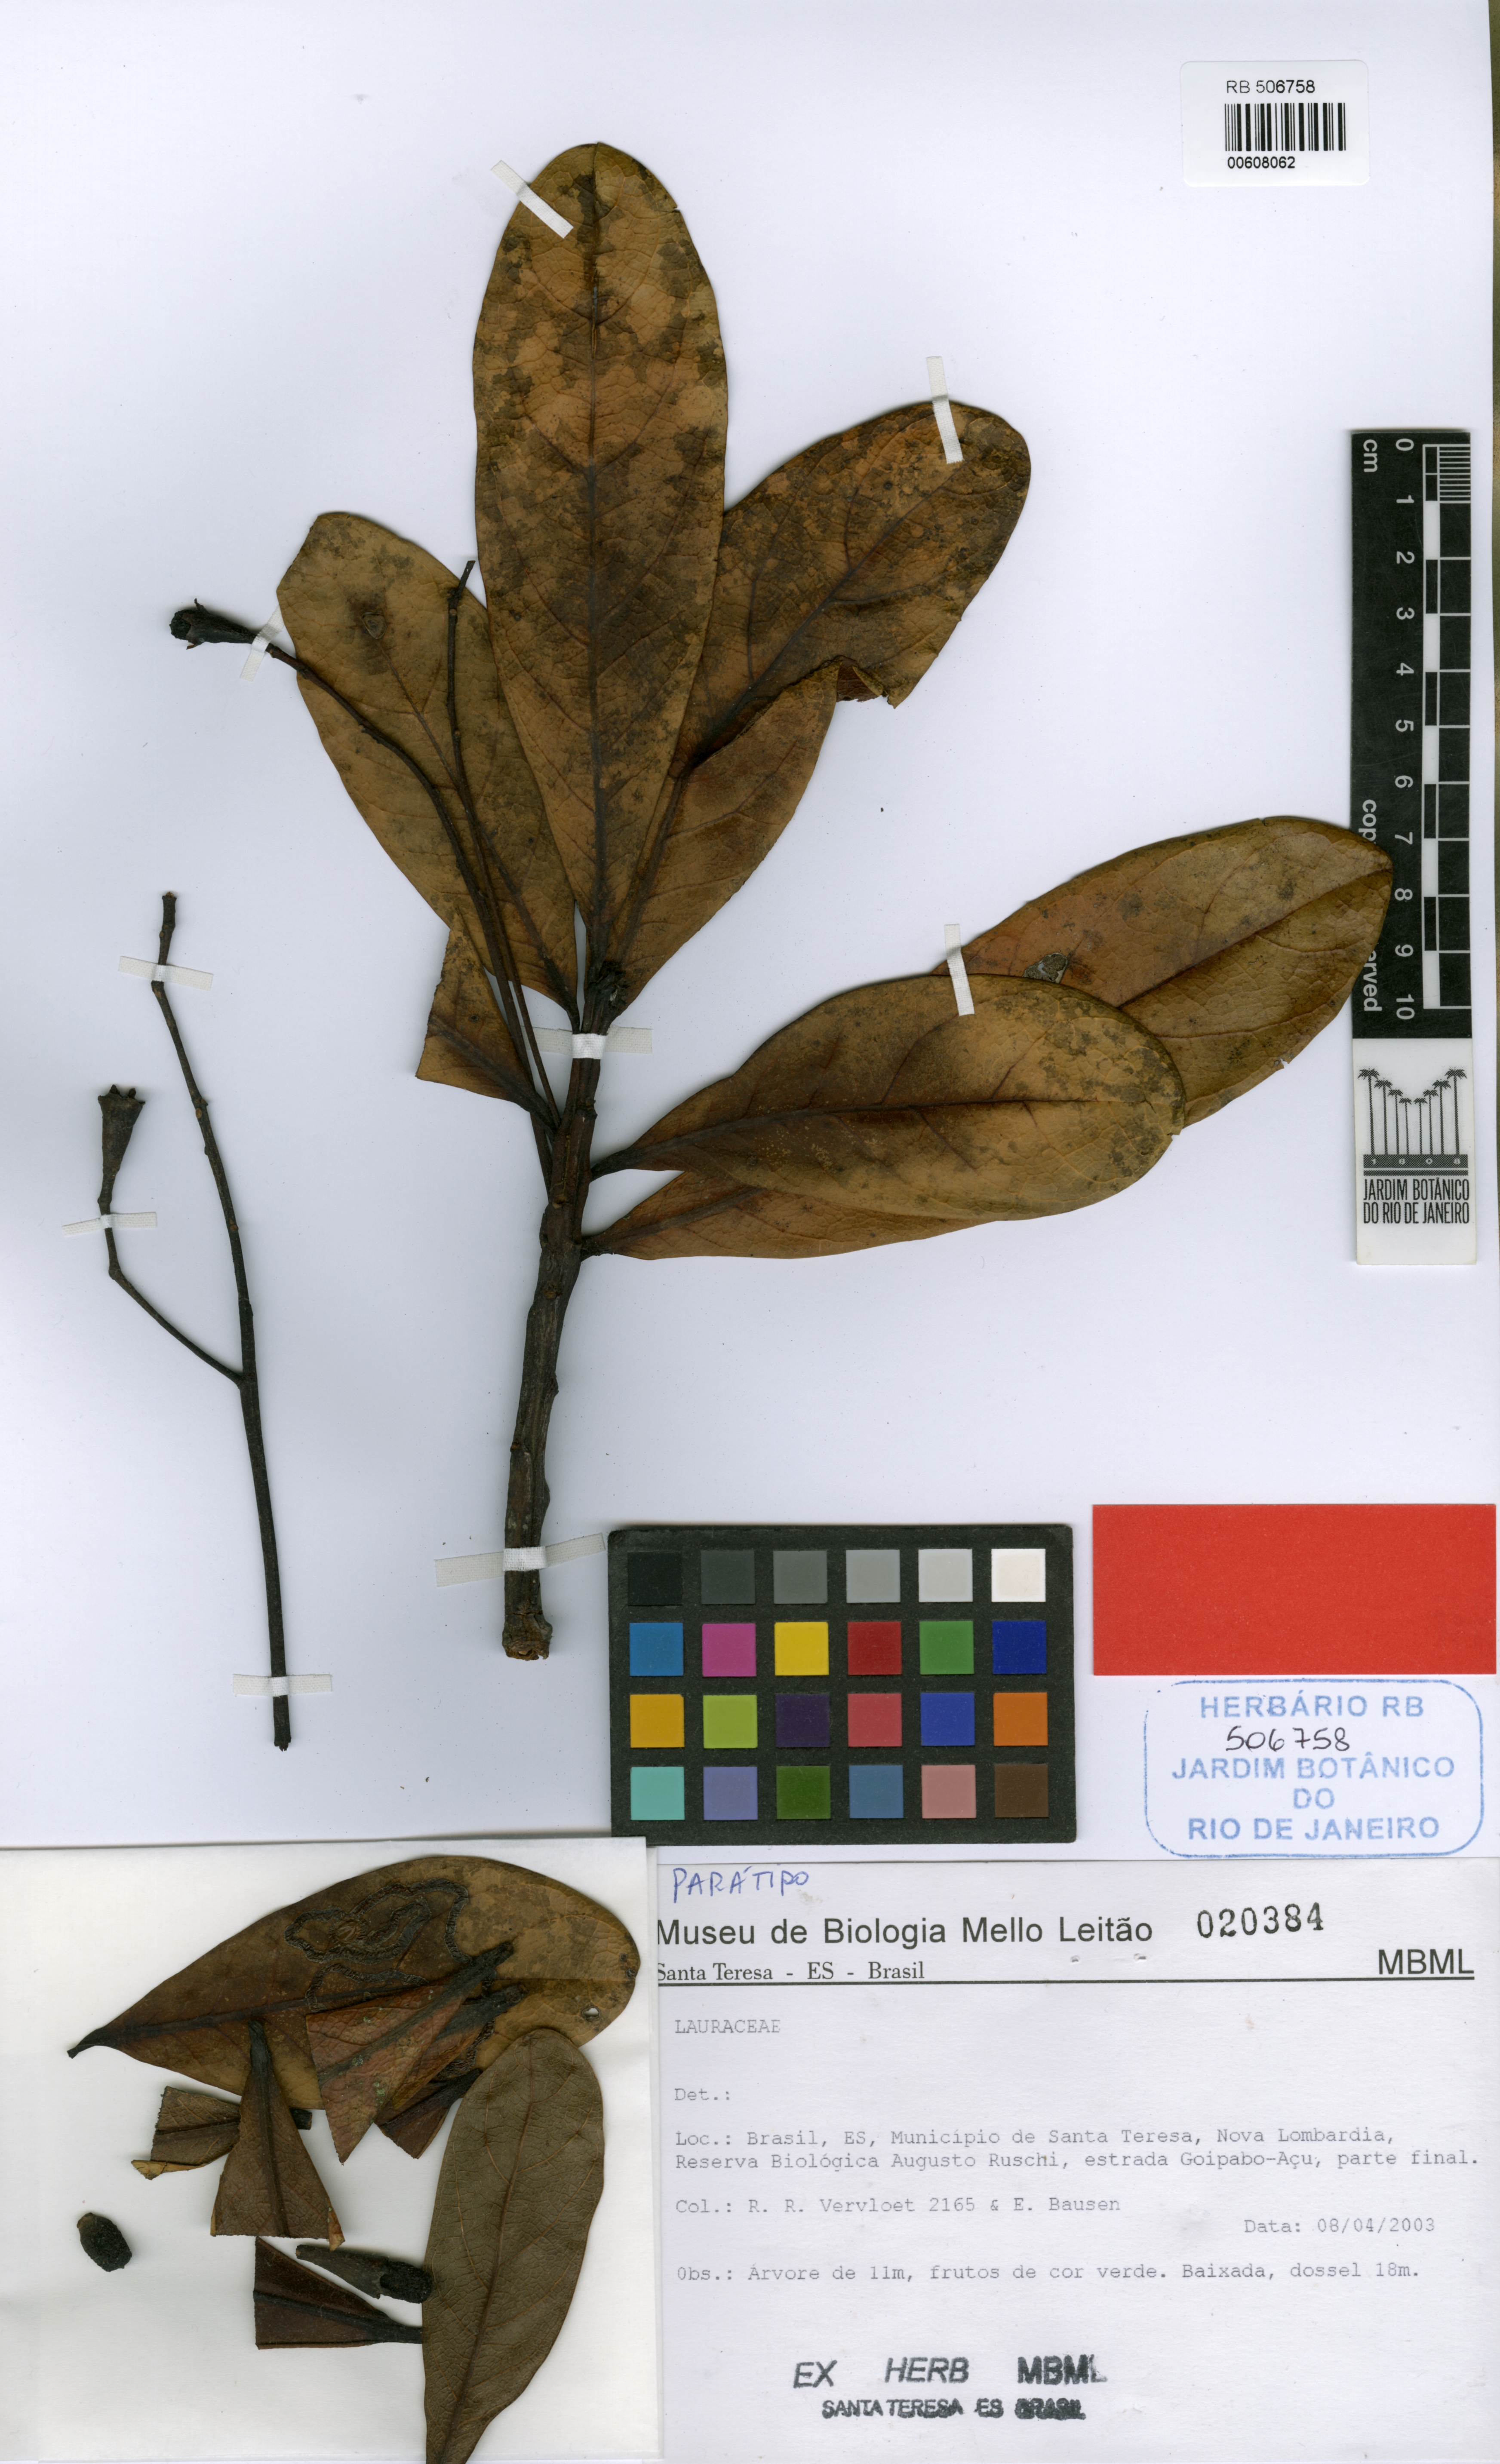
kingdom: Plantae
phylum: Tracheophyta
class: Magnoliopsida
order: Laurales
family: Lauraceae
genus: Ocotea
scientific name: Ocotea revolutifolia
